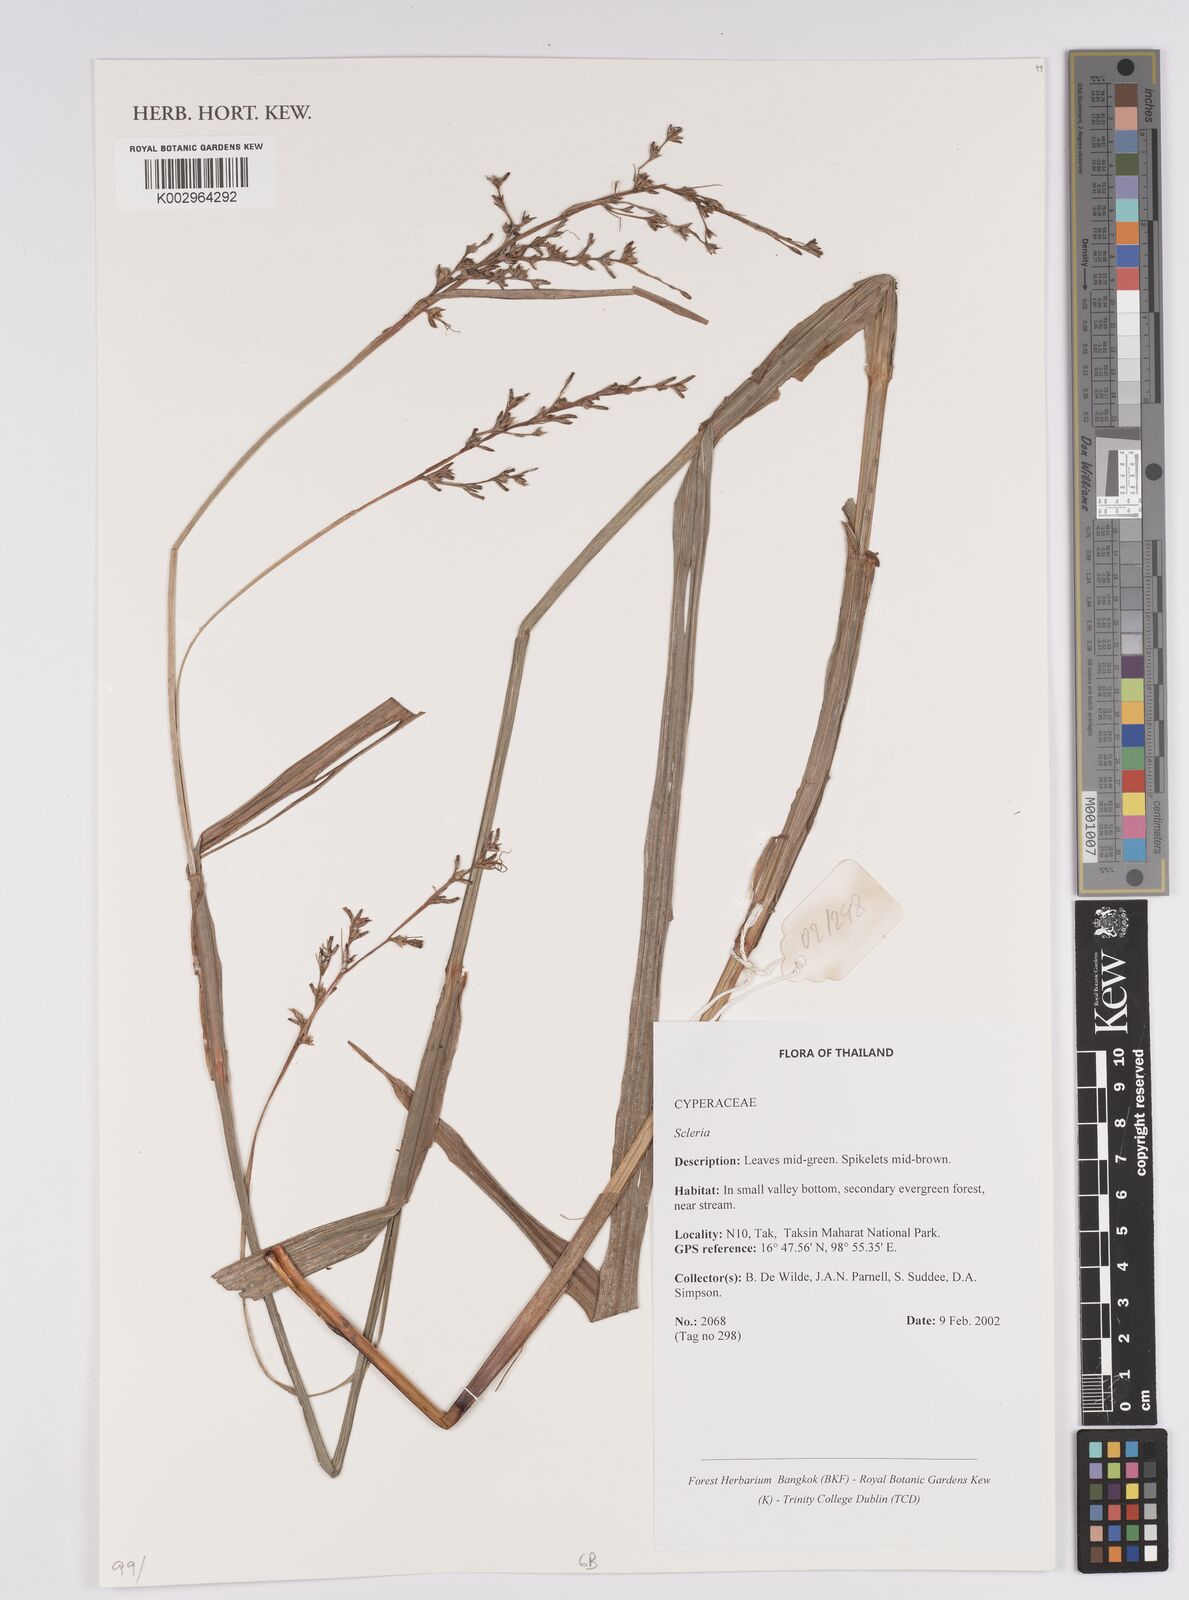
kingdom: Plantae
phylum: Tracheophyta
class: Liliopsida
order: Poales
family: Cyperaceae
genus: Scleria
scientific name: Scleria
